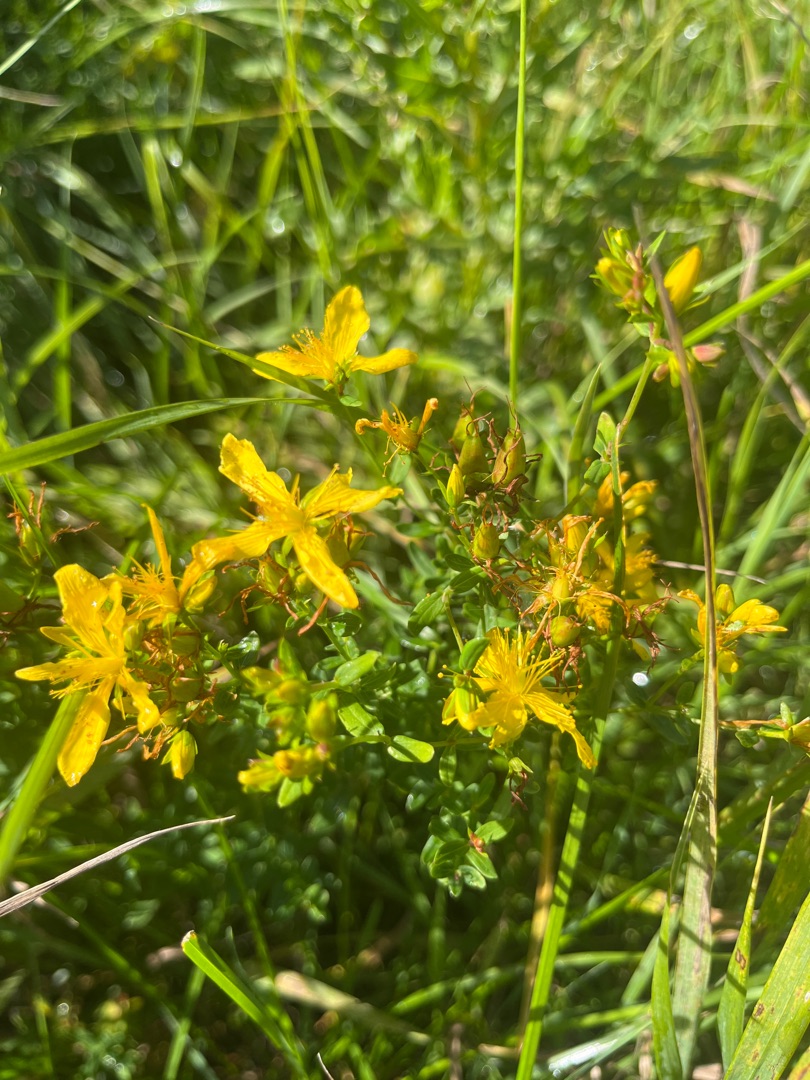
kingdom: Plantae
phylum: Tracheophyta
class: Magnoliopsida
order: Malpighiales
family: Hypericaceae
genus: Hypericum
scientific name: Hypericum perforatum
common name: Prikbladet perikon
